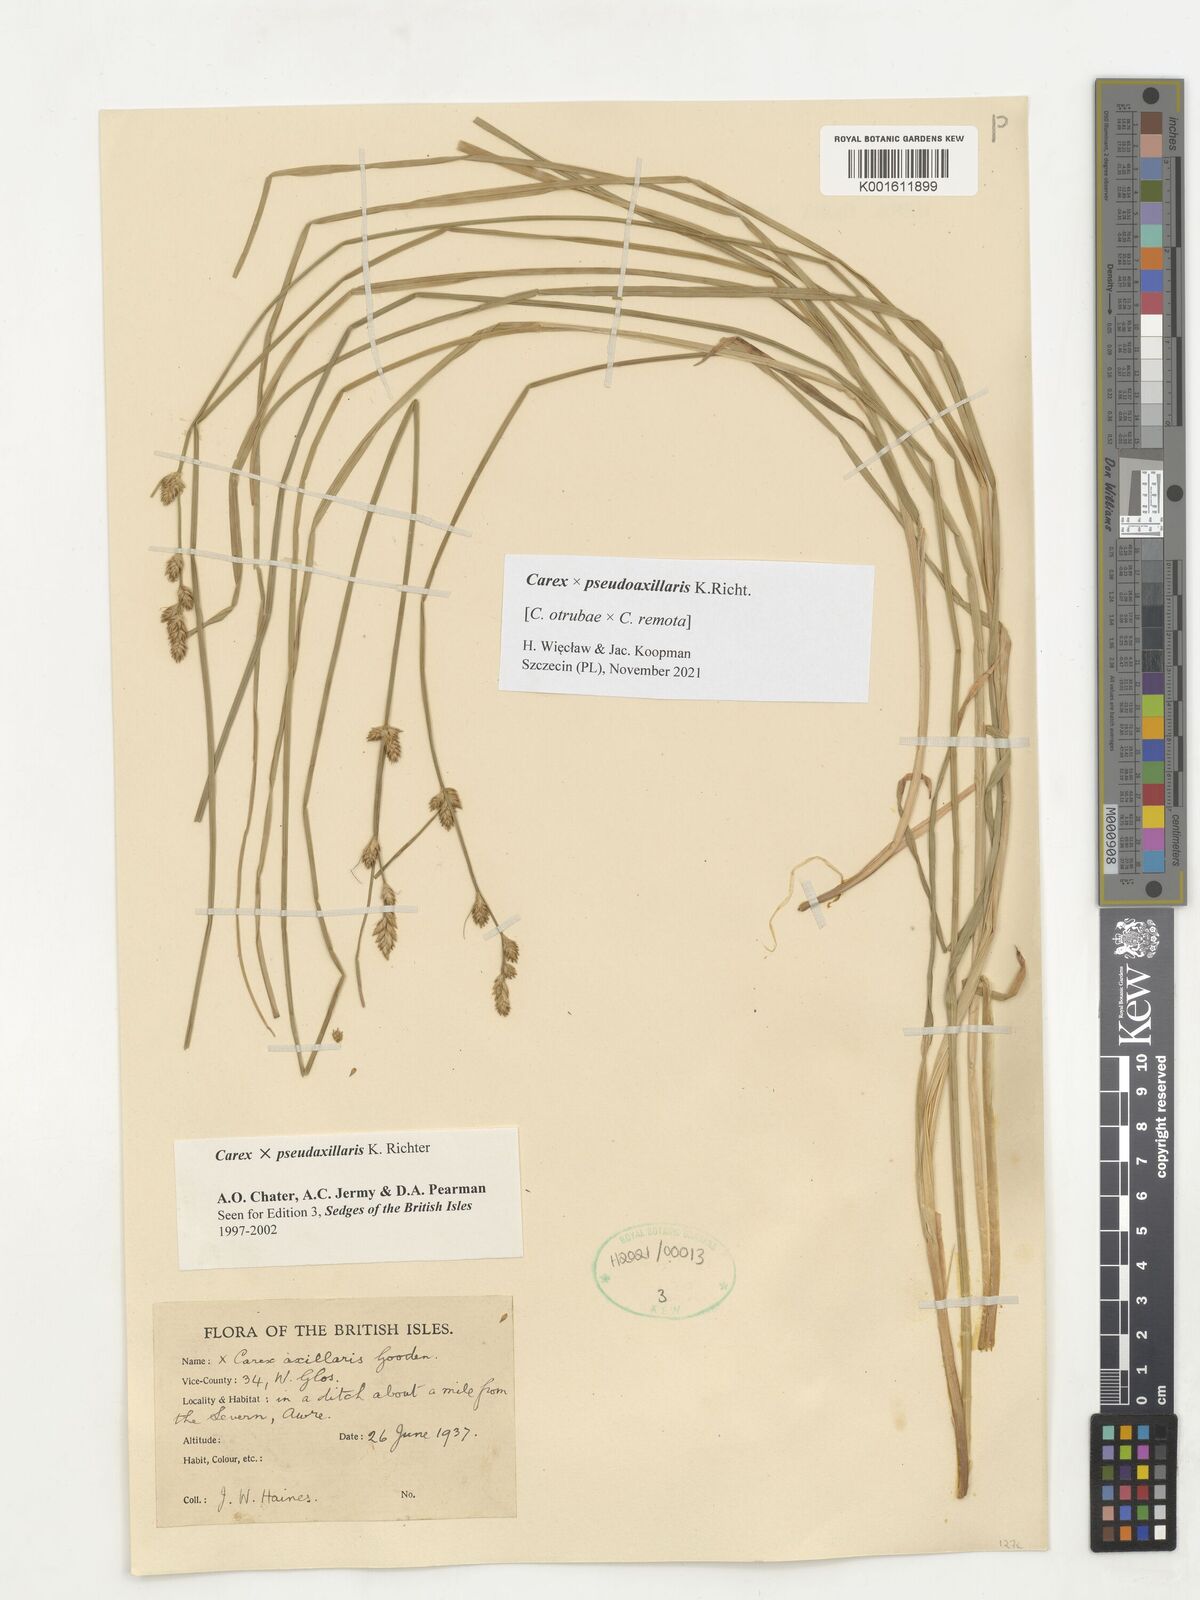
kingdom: Plantae
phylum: Tracheophyta
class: Liliopsida
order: Poales
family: Cyperaceae
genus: Carex
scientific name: Carex pseudoaxillaris
